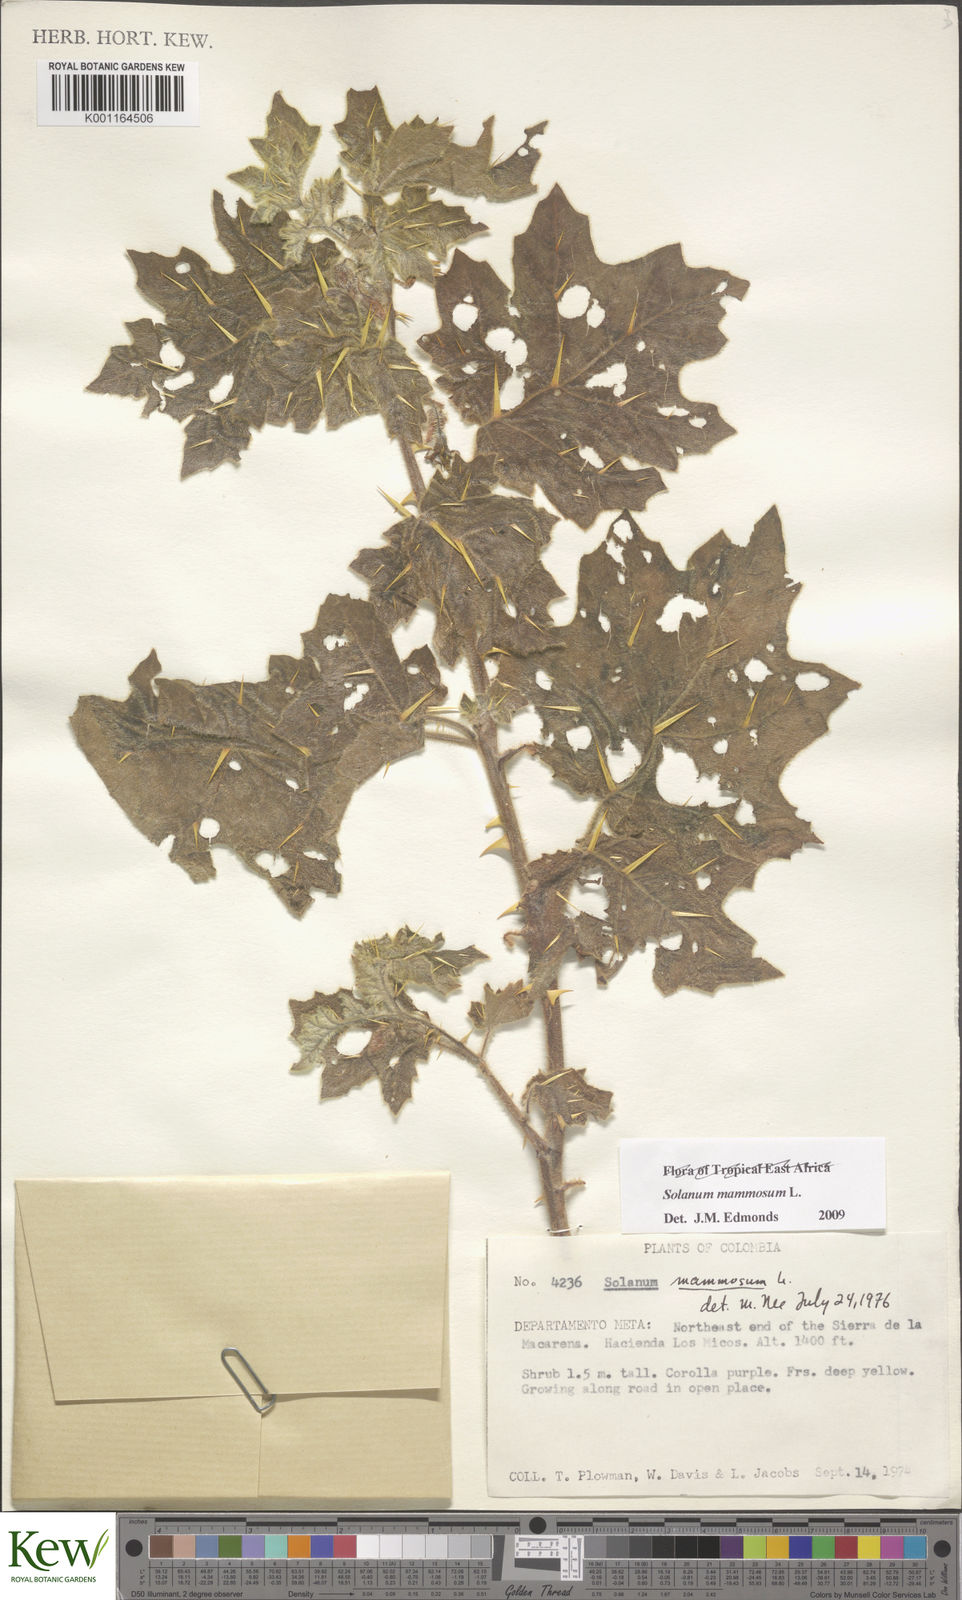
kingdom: Plantae
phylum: Tracheophyta
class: Magnoliopsida
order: Solanales
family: Solanaceae
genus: Solanum
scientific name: Solanum mammosum
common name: Nipple fruit
